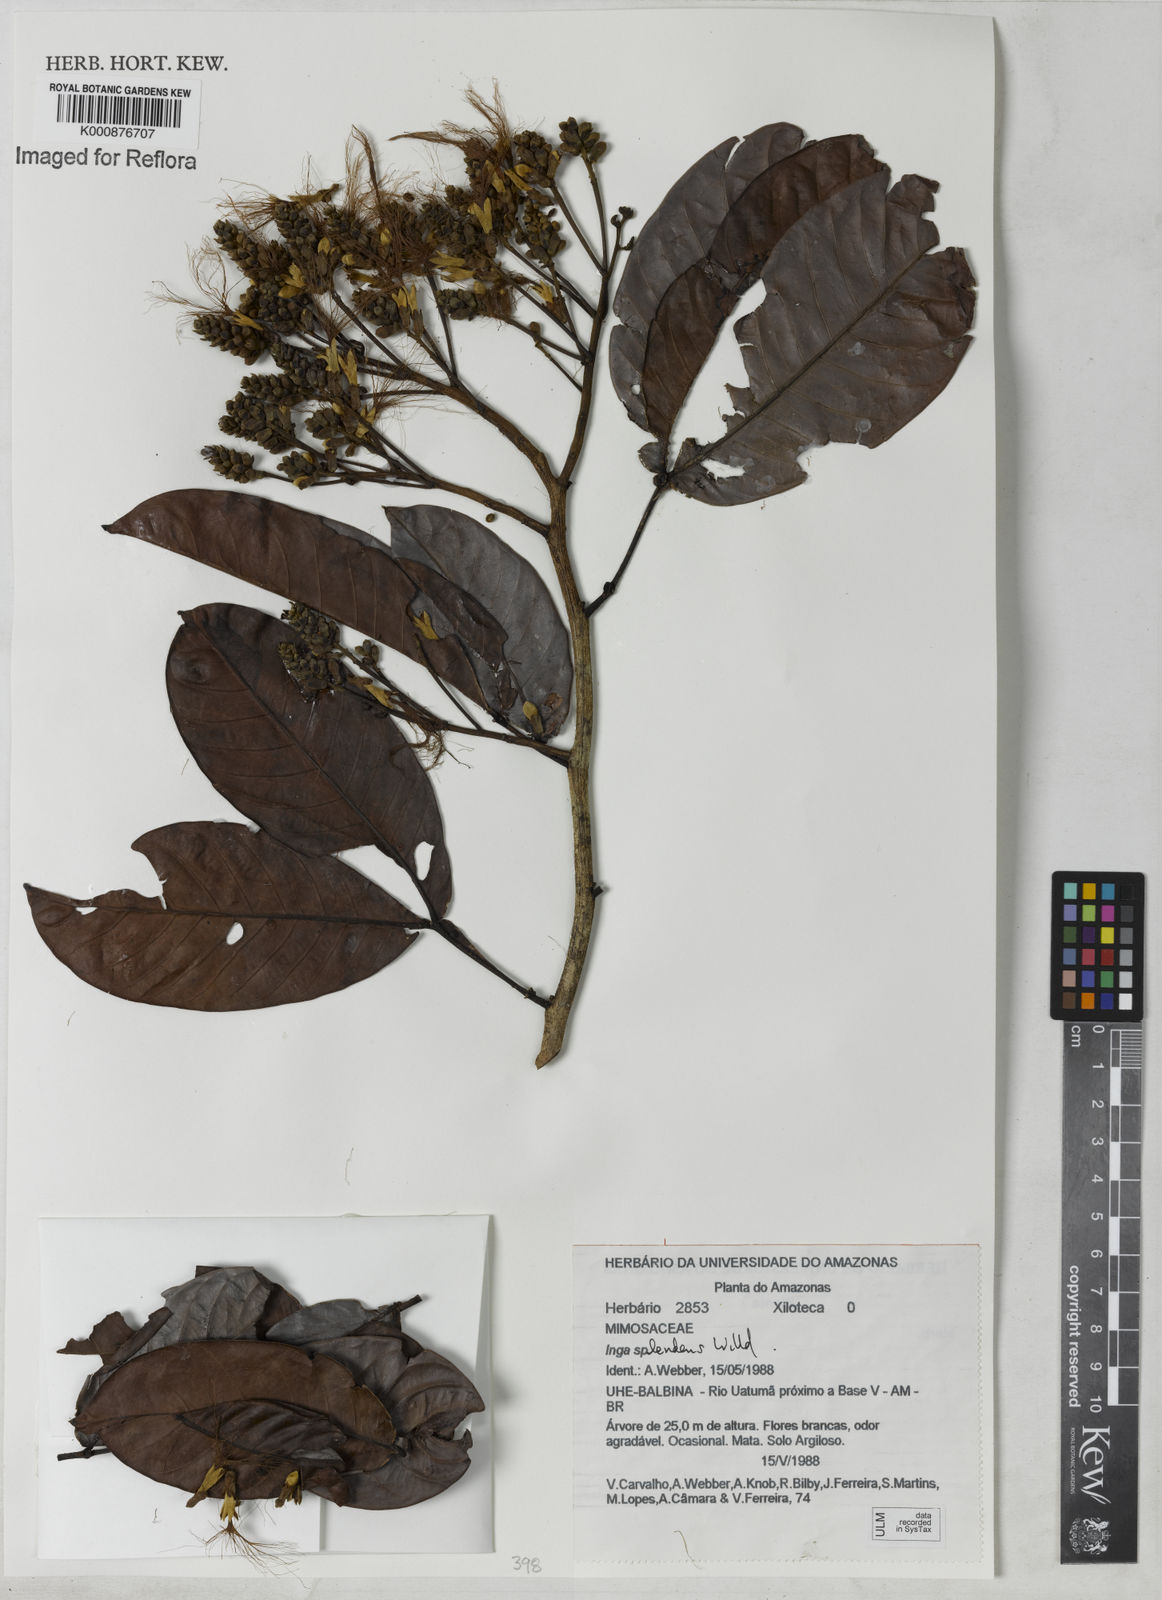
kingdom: Plantae
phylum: Tracheophyta
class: Magnoliopsida
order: Fabales
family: Fabaceae
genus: Inga
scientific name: Inga splendens
